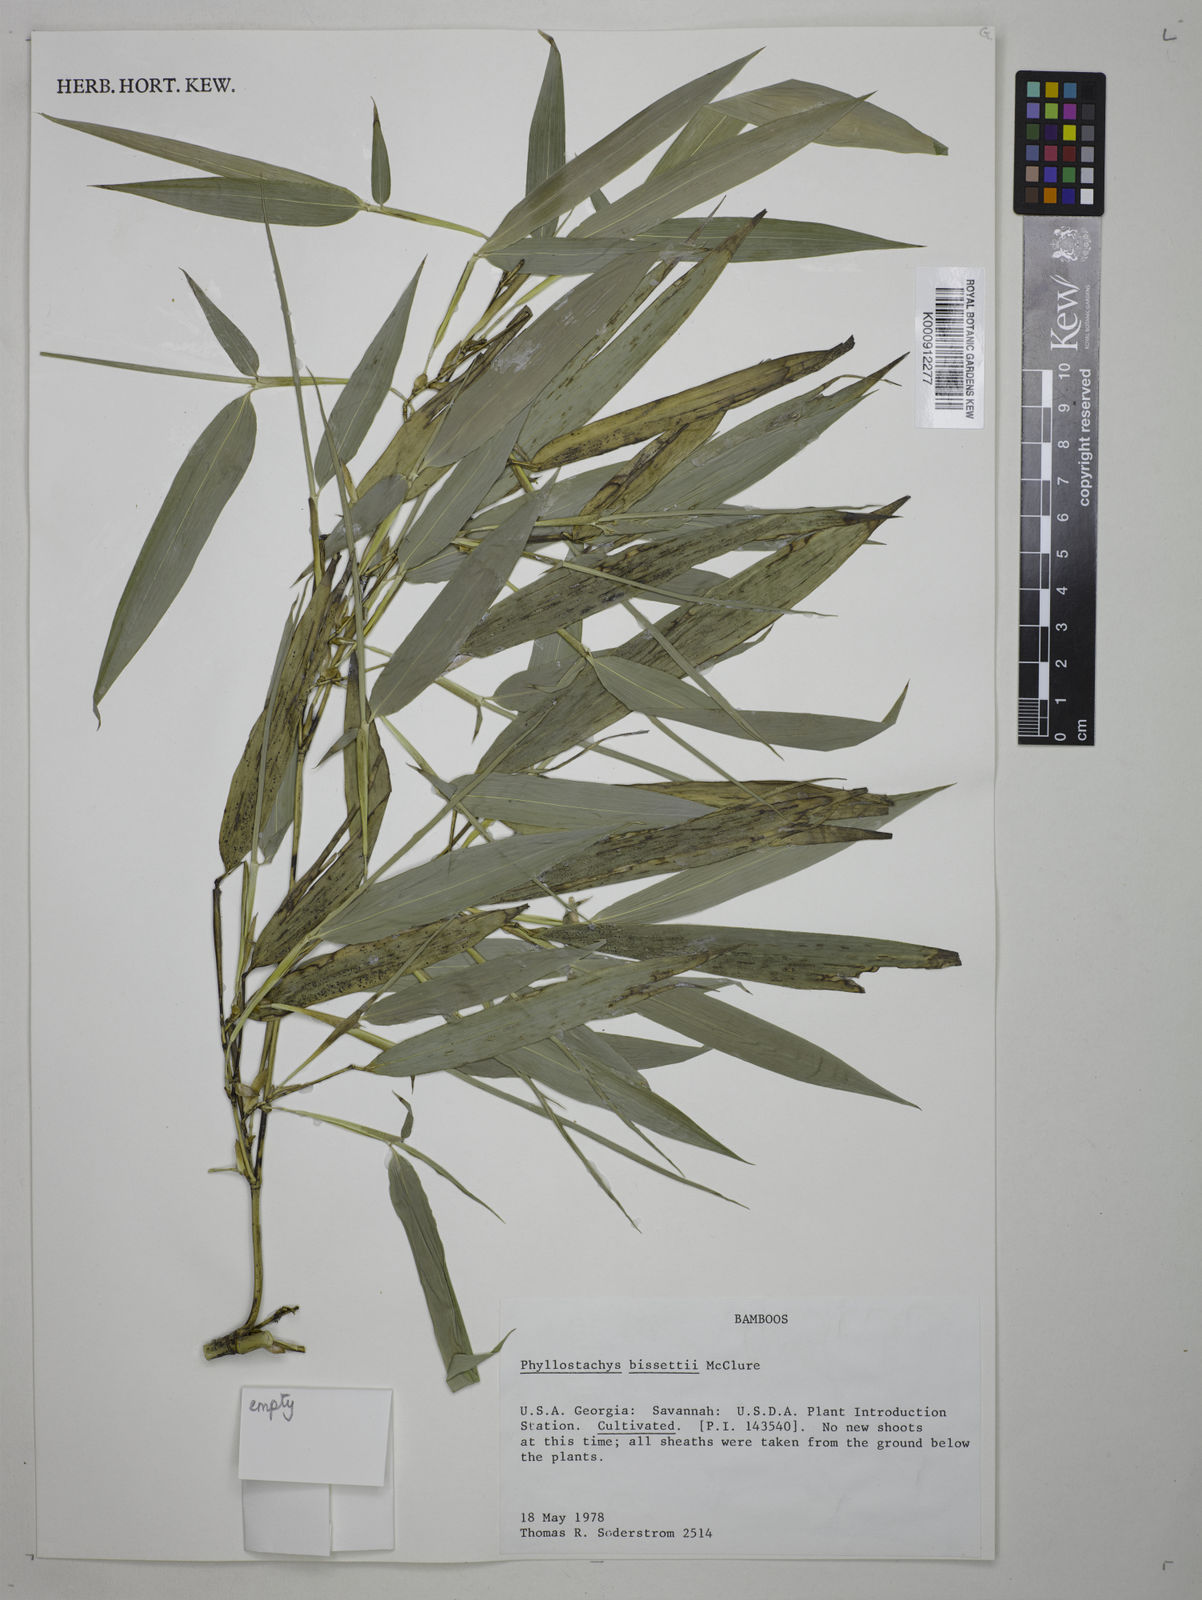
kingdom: Plantae
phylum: Tracheophyta
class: Liliopsida
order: Poales
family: Poaceae
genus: Phyllostachys
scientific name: Phyllostachys bissetii
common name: Bamboo
